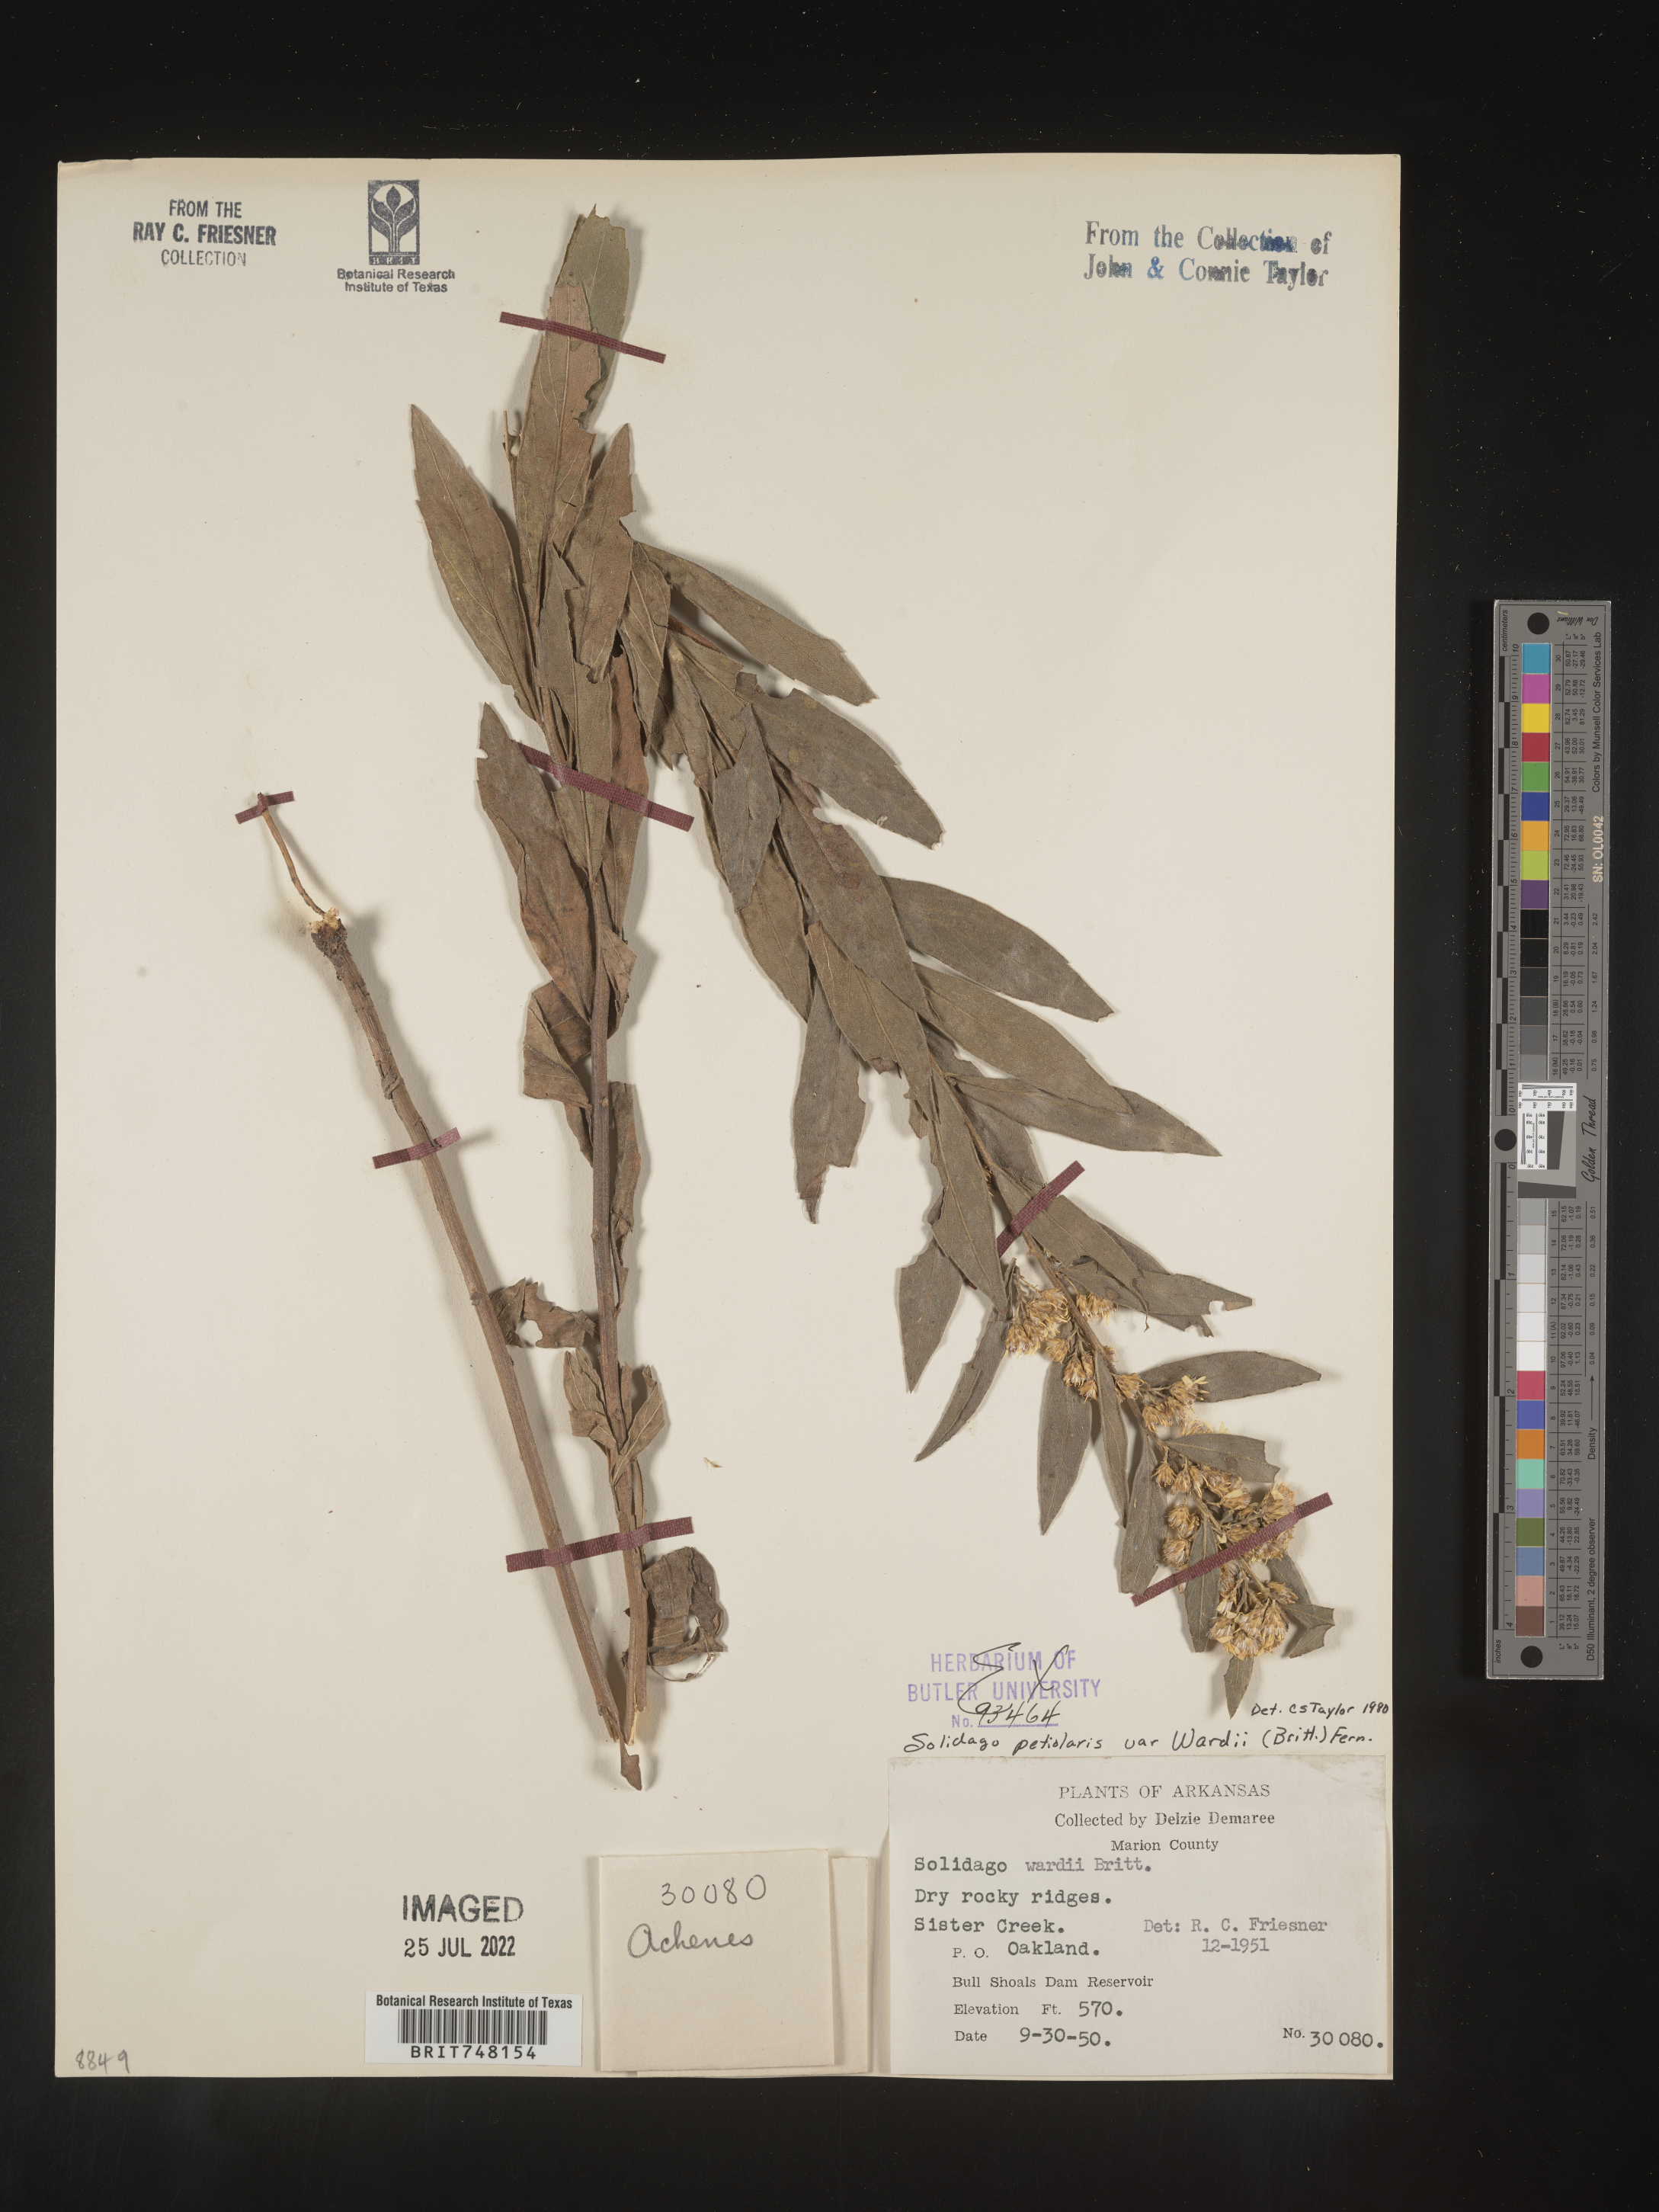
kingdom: Plantae
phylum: Tracheophyta
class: Magnoliopsida
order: Asterales
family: Asteraceae
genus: Solidago
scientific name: Solidago petiolaris
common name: Downy ragged goldenrod
